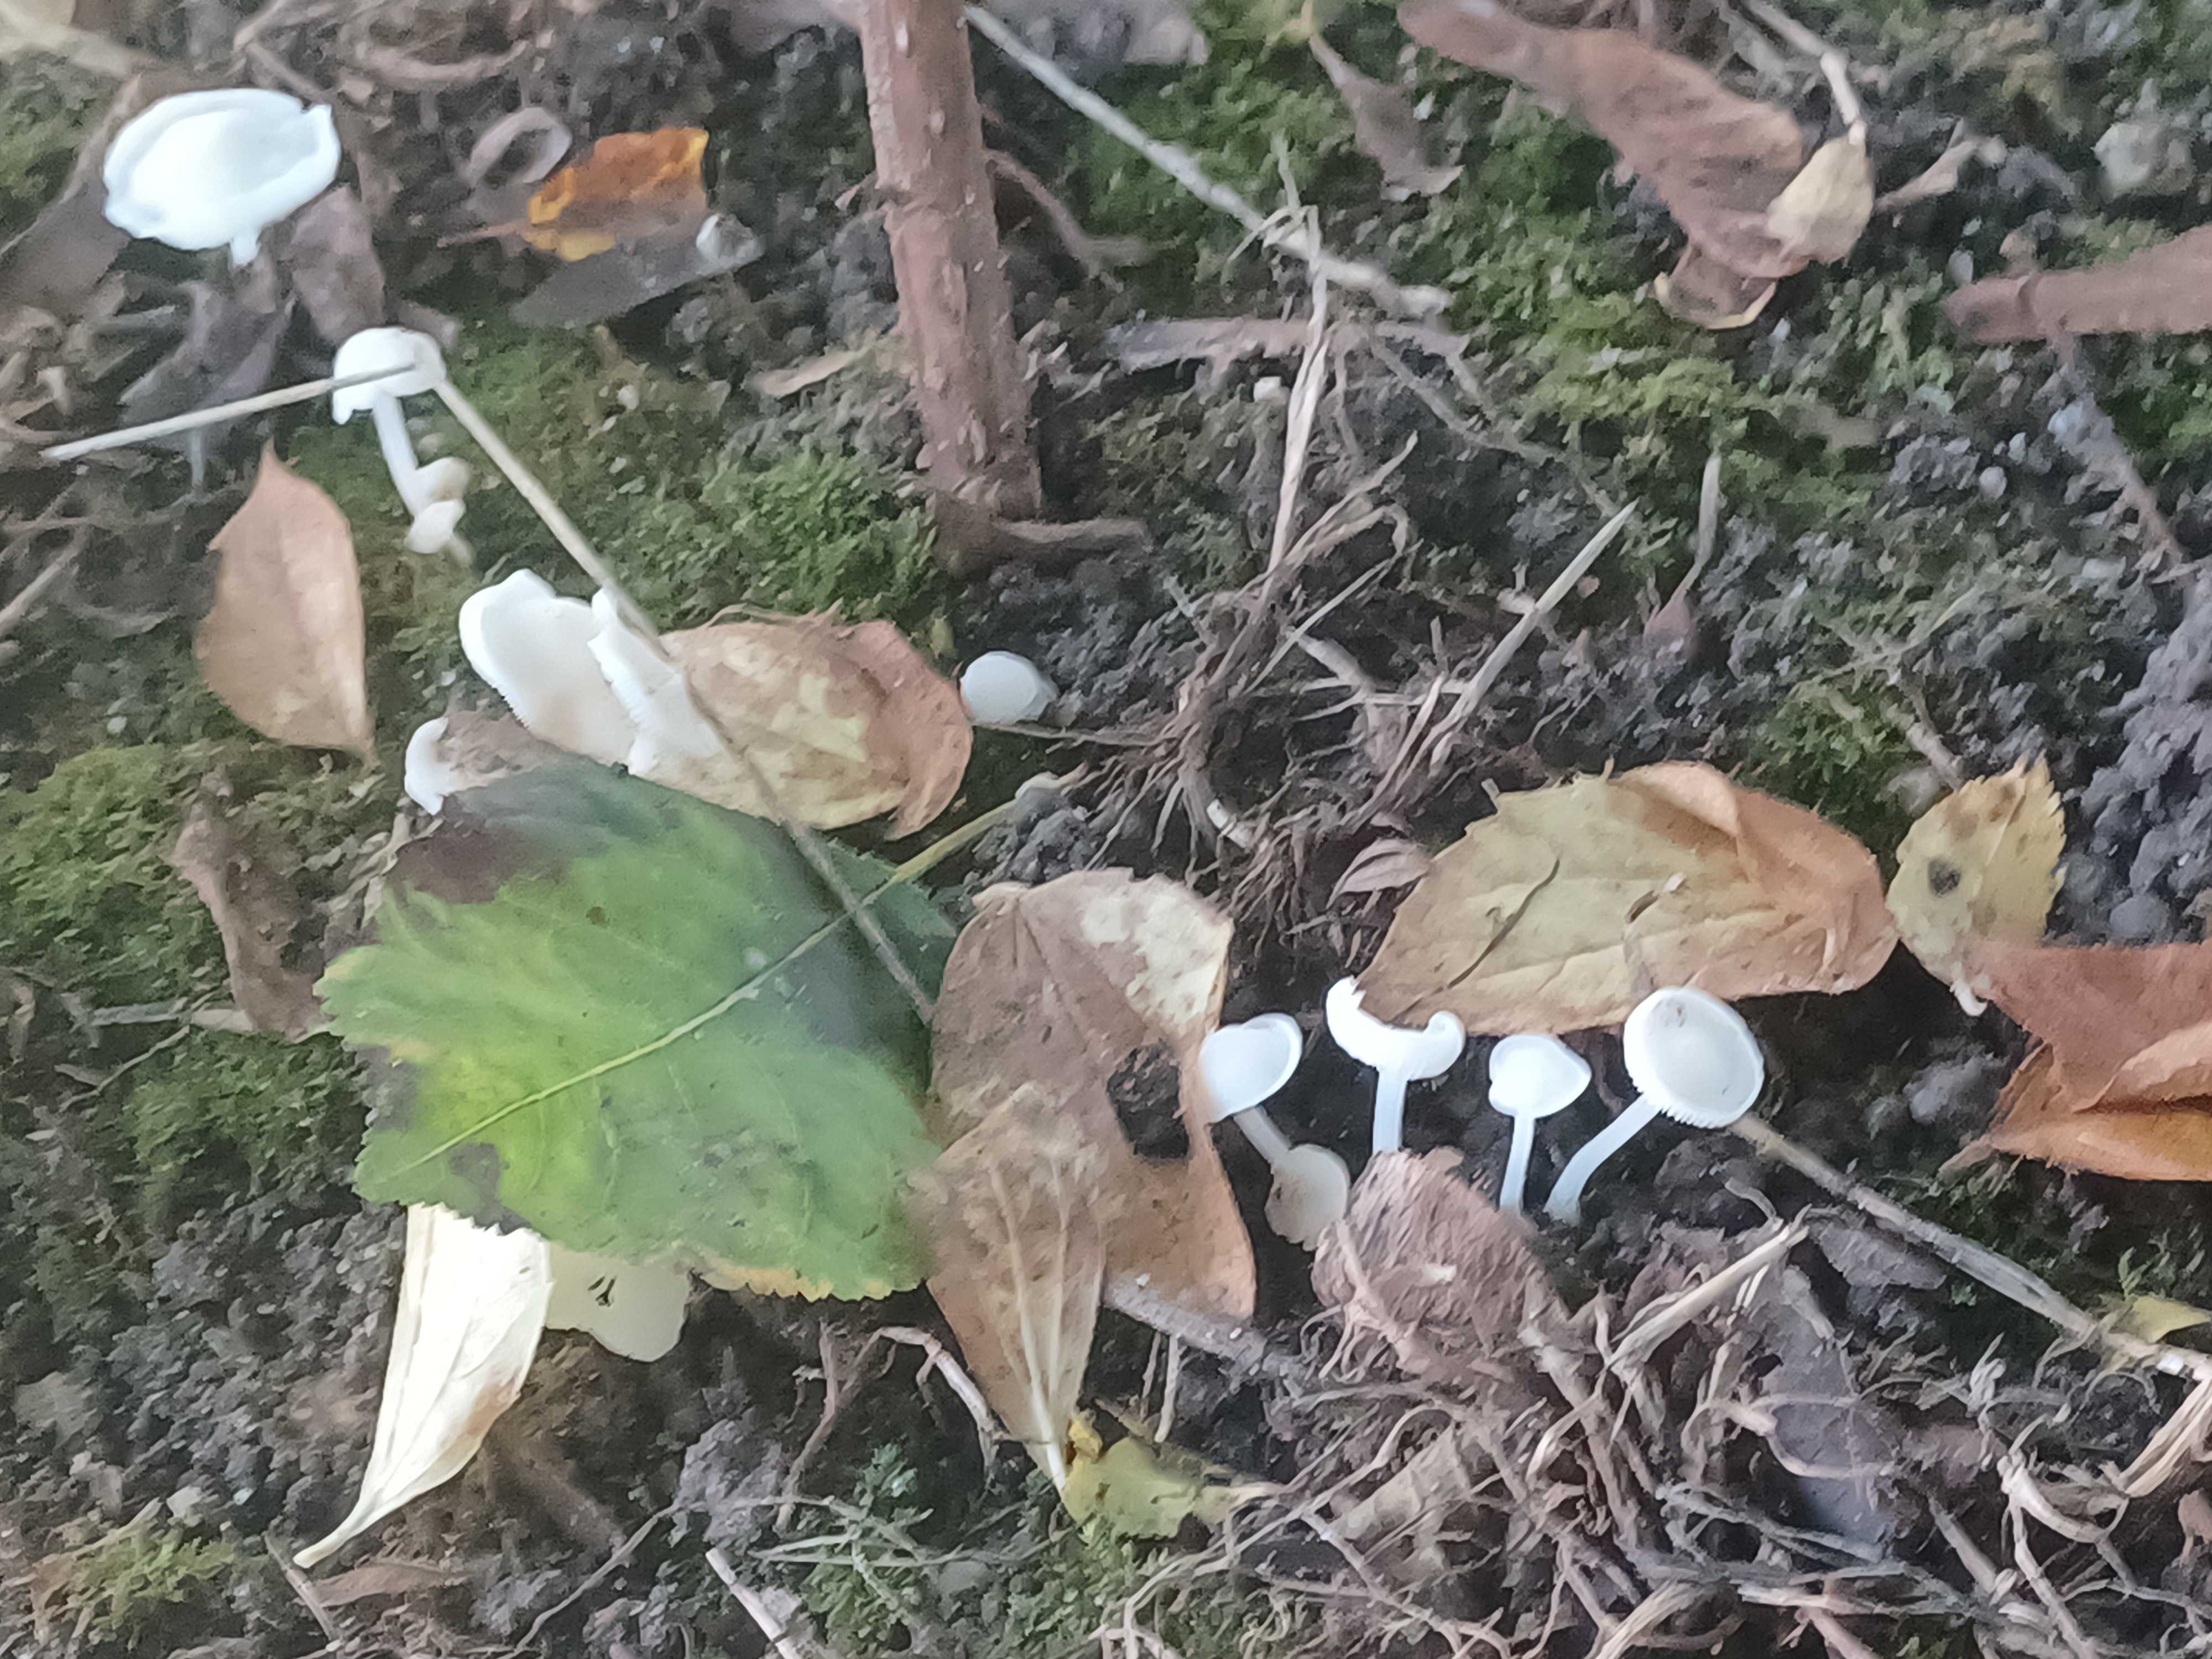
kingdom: Fungi
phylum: Basidiomycota
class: Agaricomycetes
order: Agaricales
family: Porotheleaceae
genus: Phloeomana
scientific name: Phloeomana minutula
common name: bleg huesvamp
